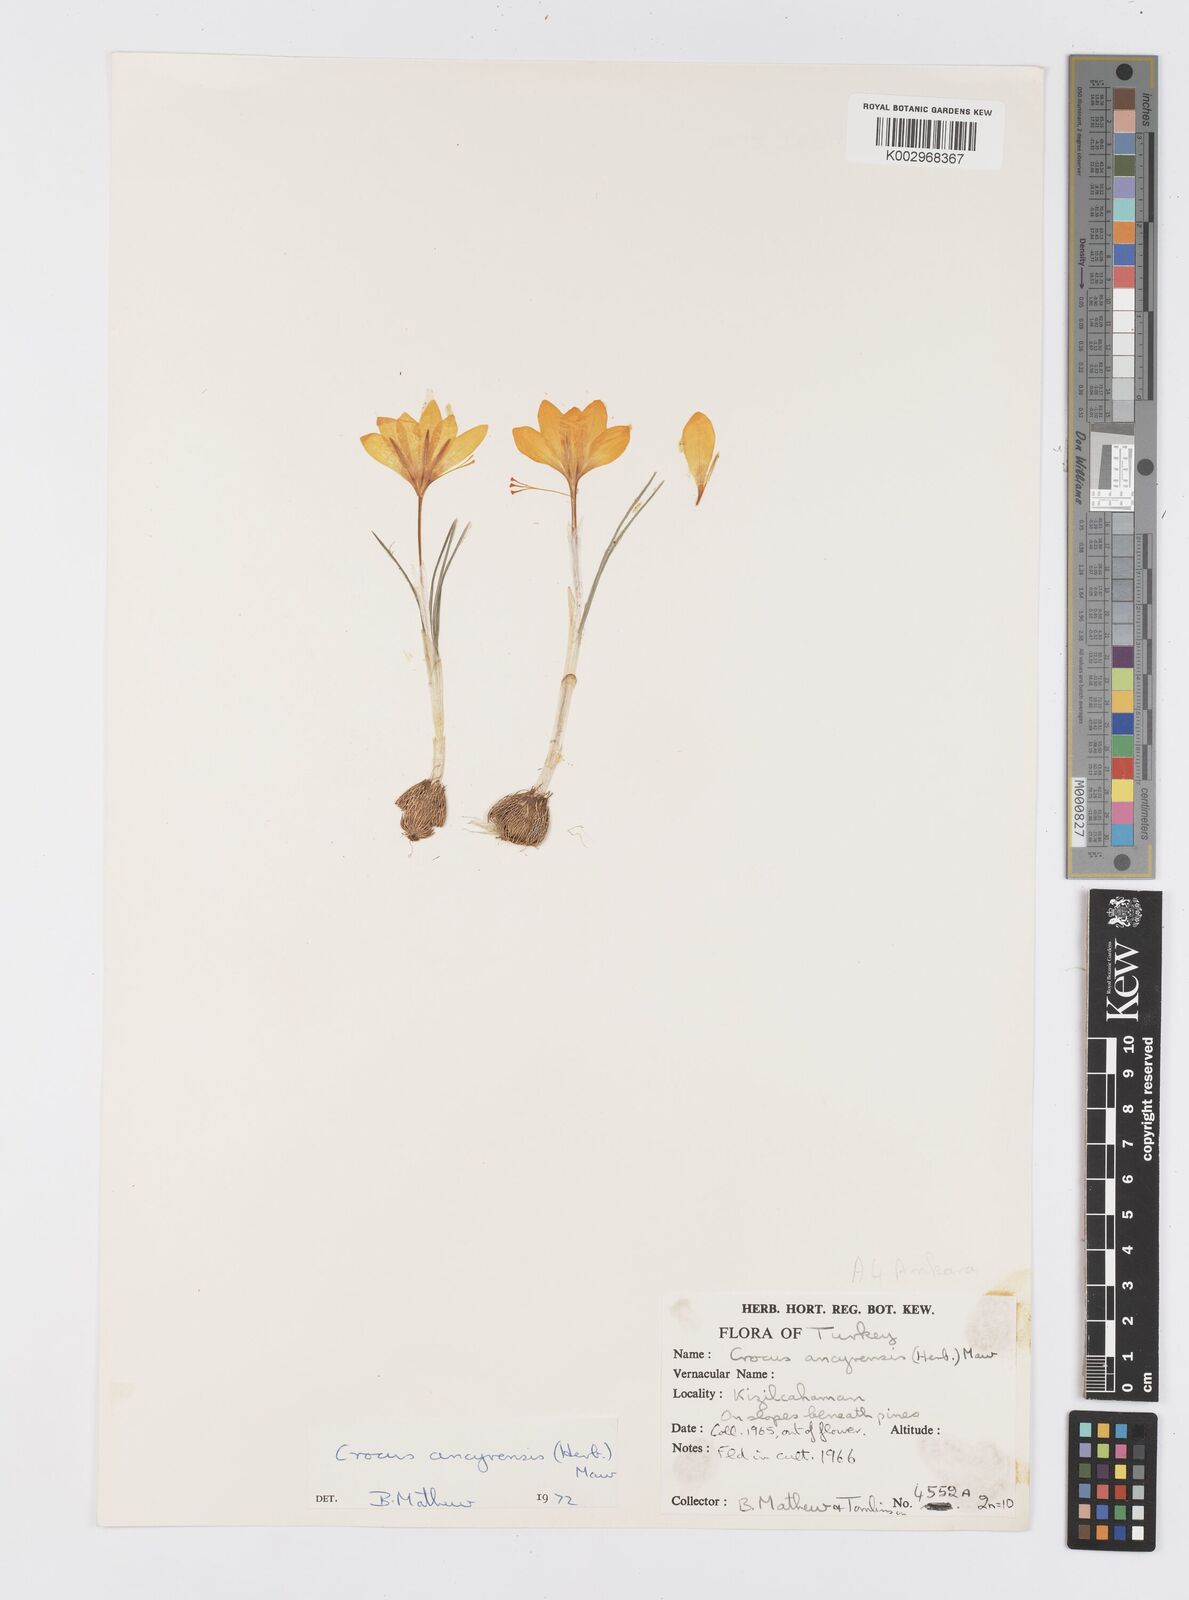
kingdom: Plantae
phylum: Tracheophyta
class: Liliopsida
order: Asparagales
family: Iridaceae
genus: Crocus
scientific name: Crocus ancyrensis
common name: Ankara crocus
